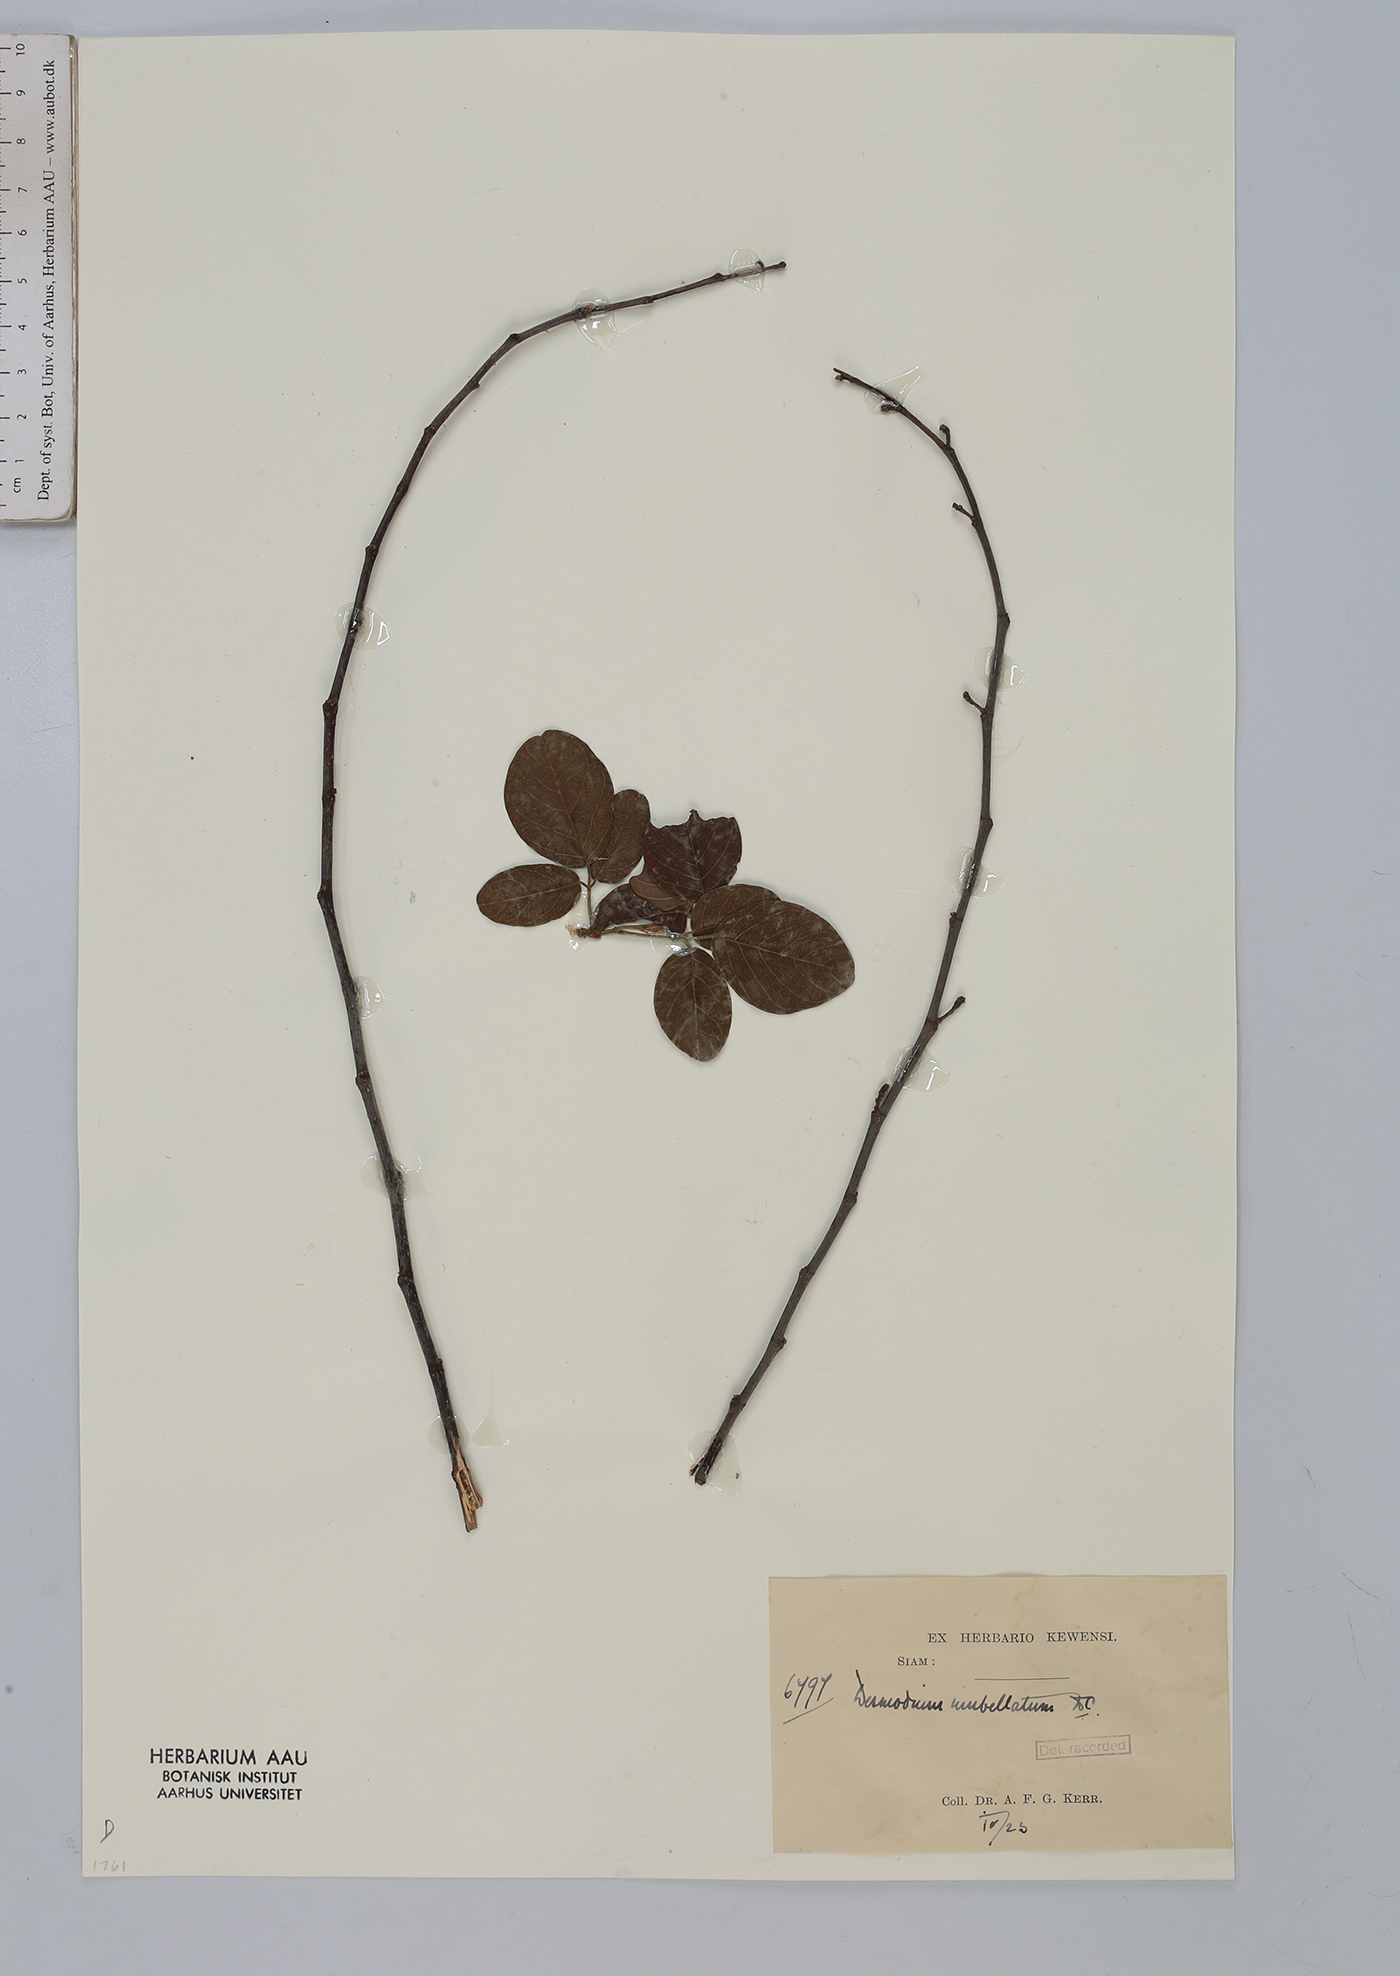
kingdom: Plantae
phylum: Tracheophyta
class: Magnoliopsida
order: Fabales
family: Fabaceae
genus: Dendrolobium
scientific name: Dendrolobium umbellatum
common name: Horsebush
